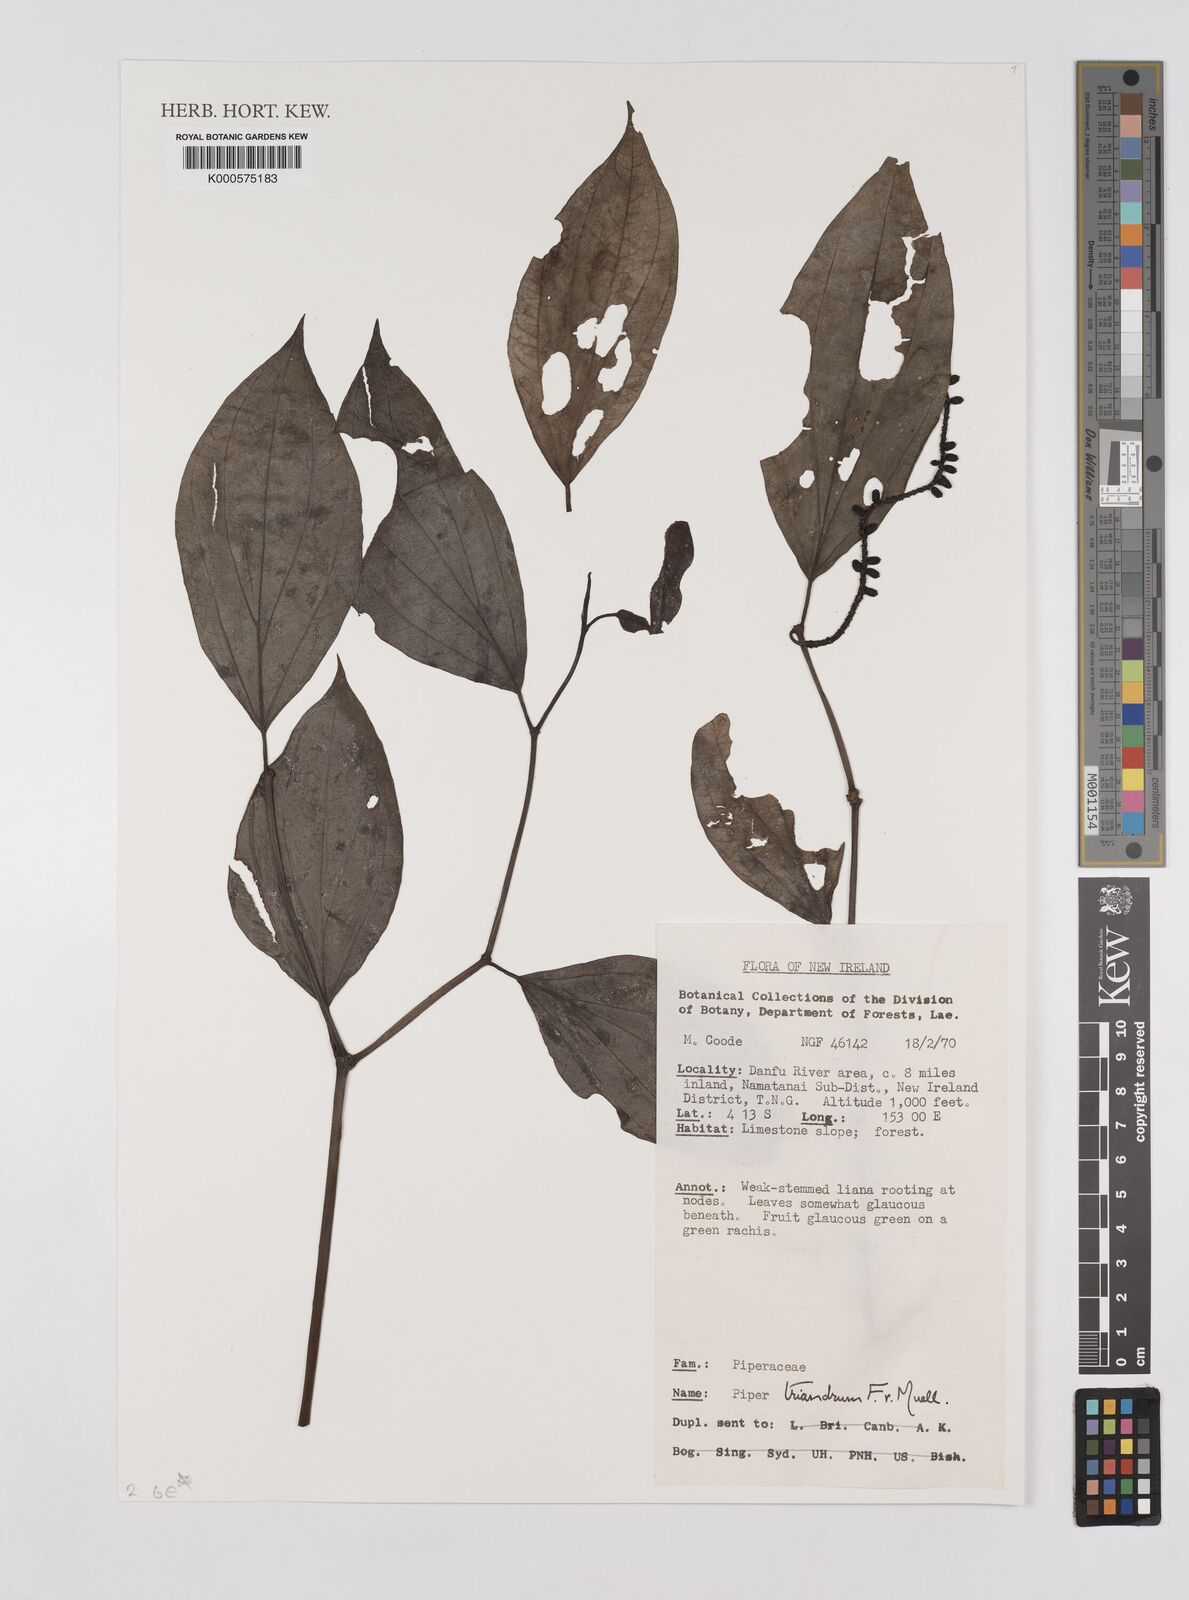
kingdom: Plantae
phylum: Tracheophyta
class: Magnoliopsida
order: Piperales
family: Piperaceae
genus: Piper
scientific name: Piper interruptum
